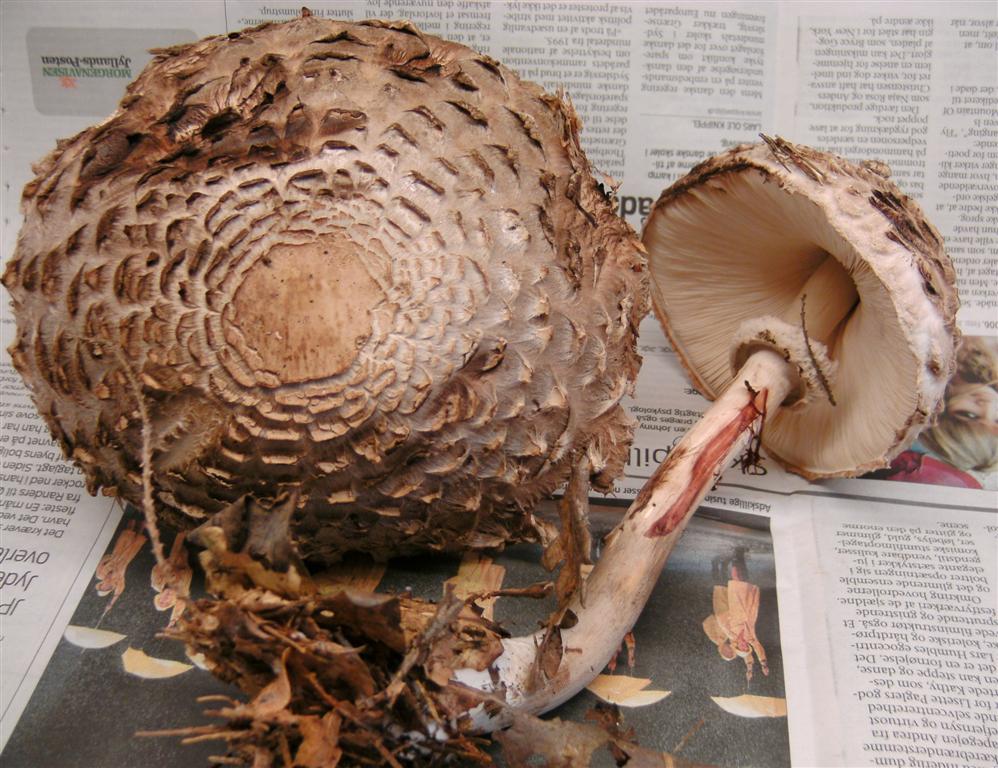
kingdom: Fungi
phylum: Basidiomycota
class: Agaricomycetes
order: Agaricales
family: Agaricaceae
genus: Chlorophyllum
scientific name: Chlorophyllum olivieri
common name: almindelig rabarberhat
